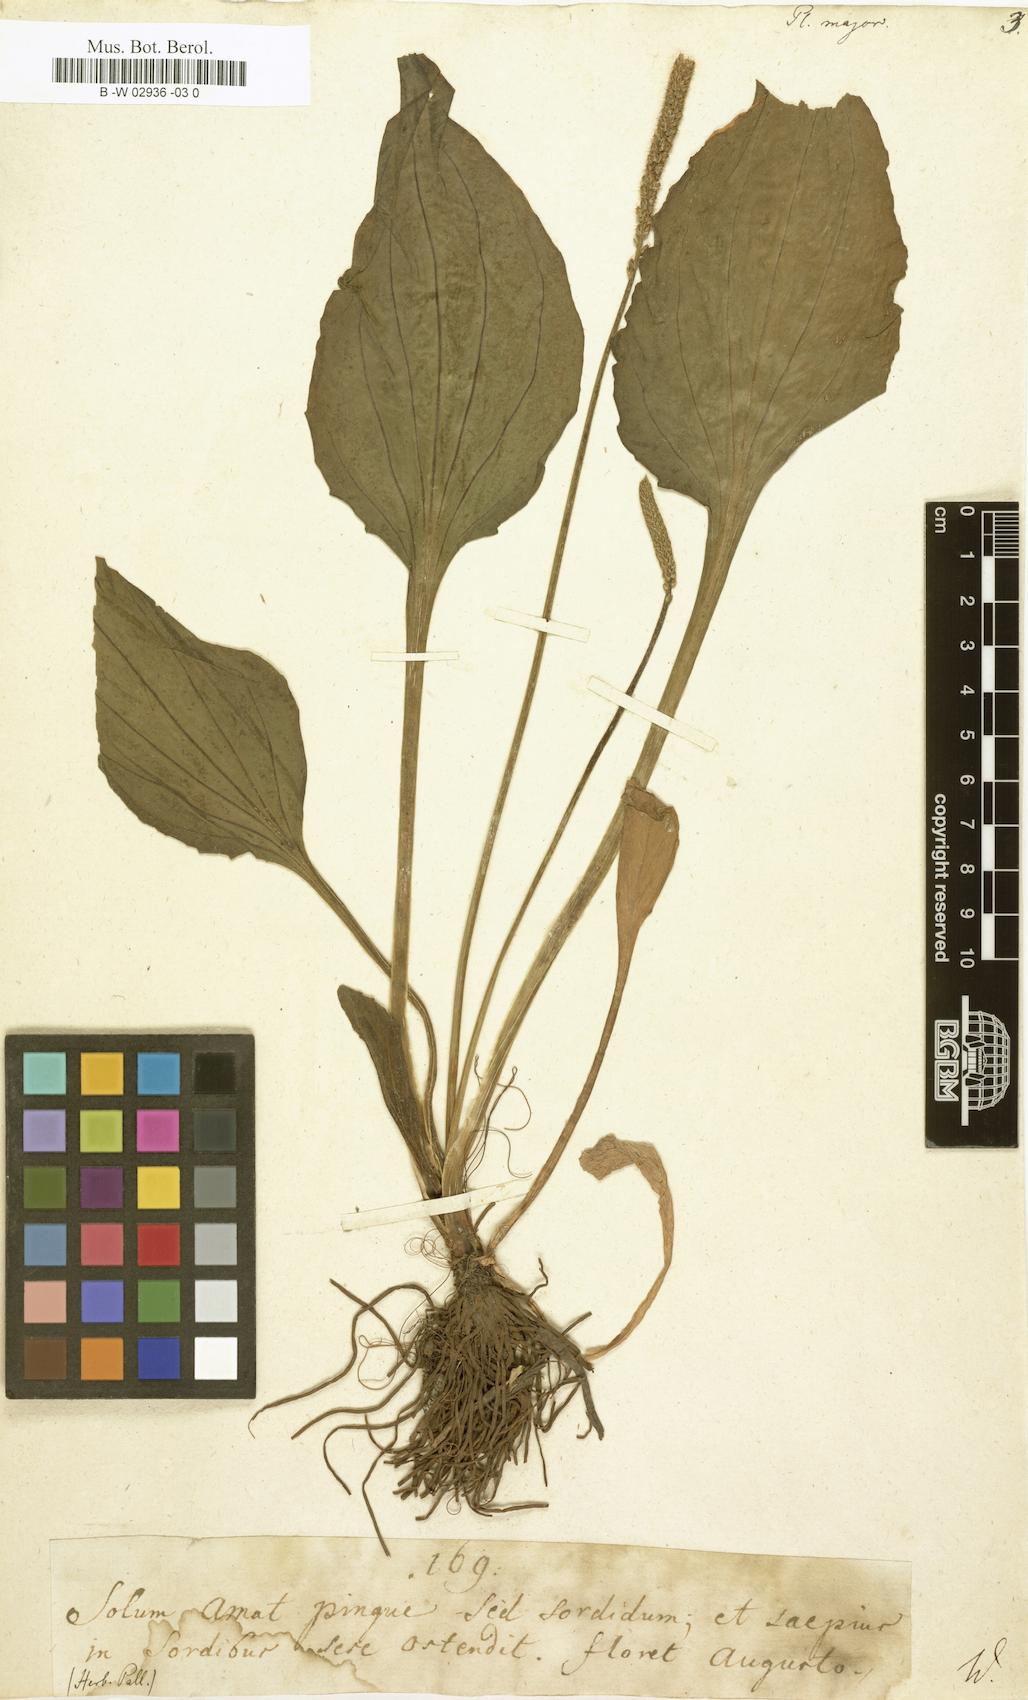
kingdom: Plantae
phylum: Tracheophyta
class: Magnoliopsida
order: Lamiales
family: Plantaginaceae
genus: Plantago
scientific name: Plantago major
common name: Common plantain
